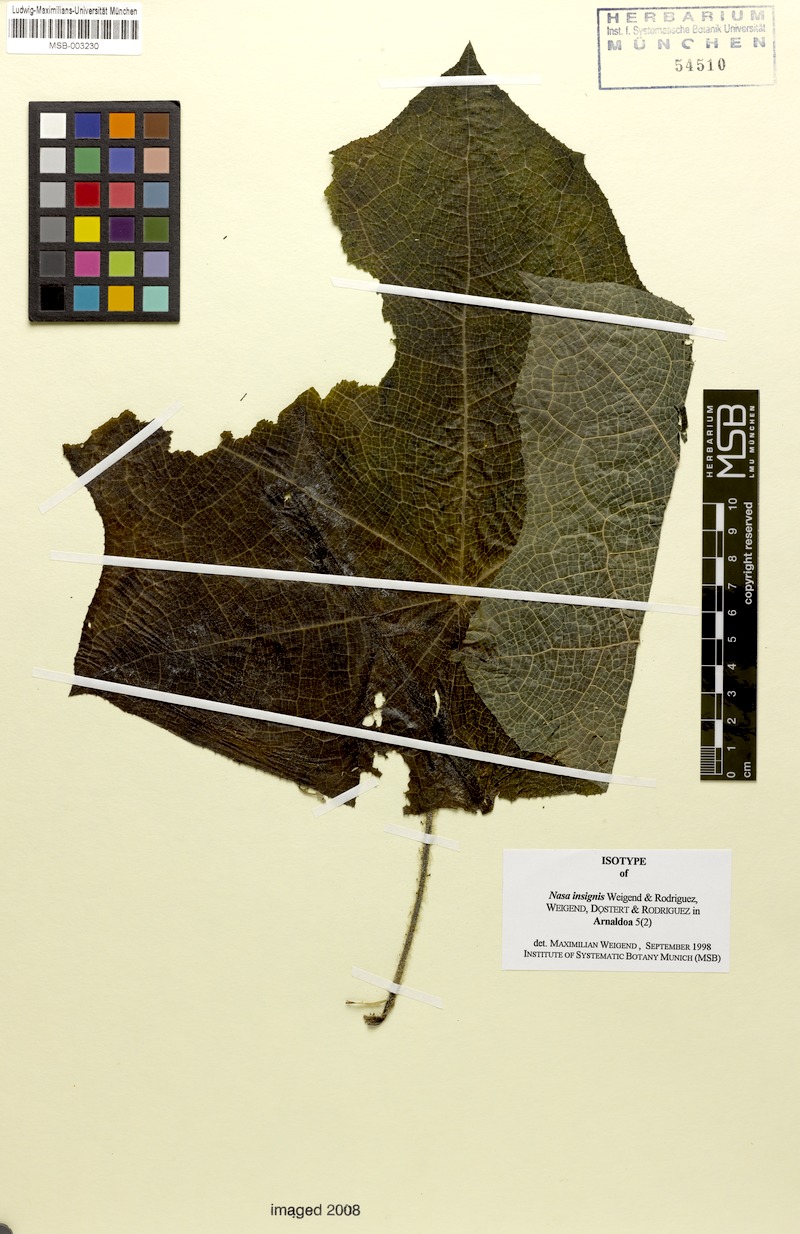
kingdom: Plantae
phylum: Tracheophyta
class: Magnoliopsida
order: Cornales
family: Loasaceae
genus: Nasa
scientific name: Nasa insignis
